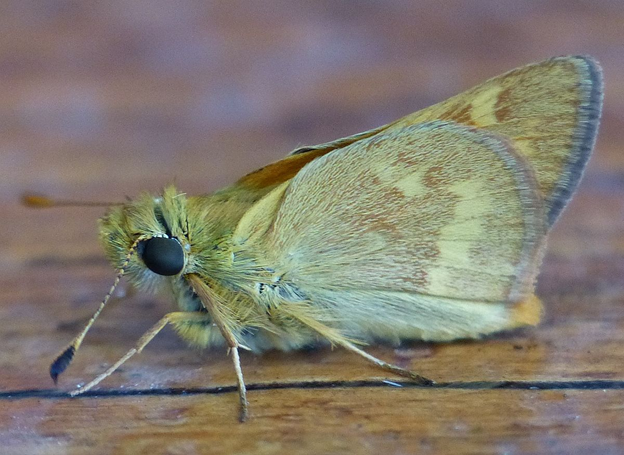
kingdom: Animalia
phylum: Arthropoda
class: Insecta
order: Lepidoptera
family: Hesperiidae
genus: Ochlodes
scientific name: Ochlodes sylvanoides
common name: Woodland Skipper
